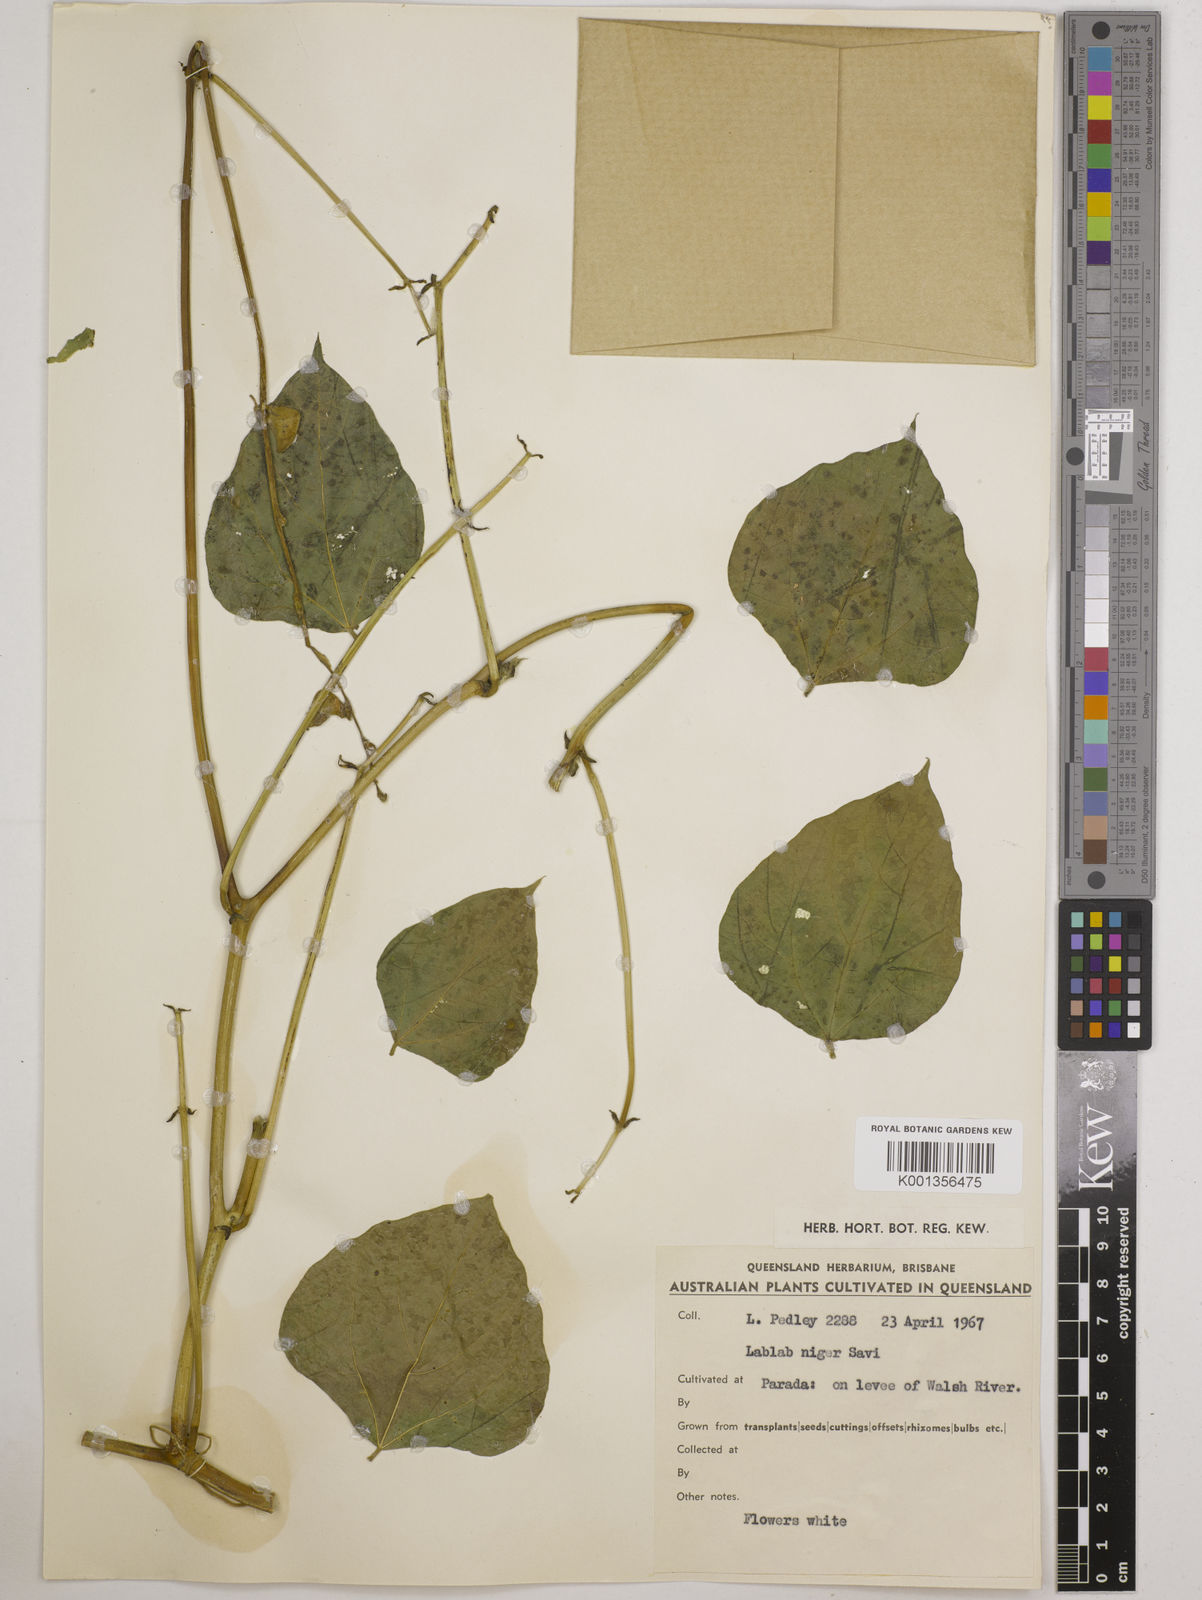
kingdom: Plantae
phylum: Tracheophyta
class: Magnoliopsida
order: Fabales
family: Fabaceae
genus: Lablab
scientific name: Lablab purpureus
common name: Lablab-bean
